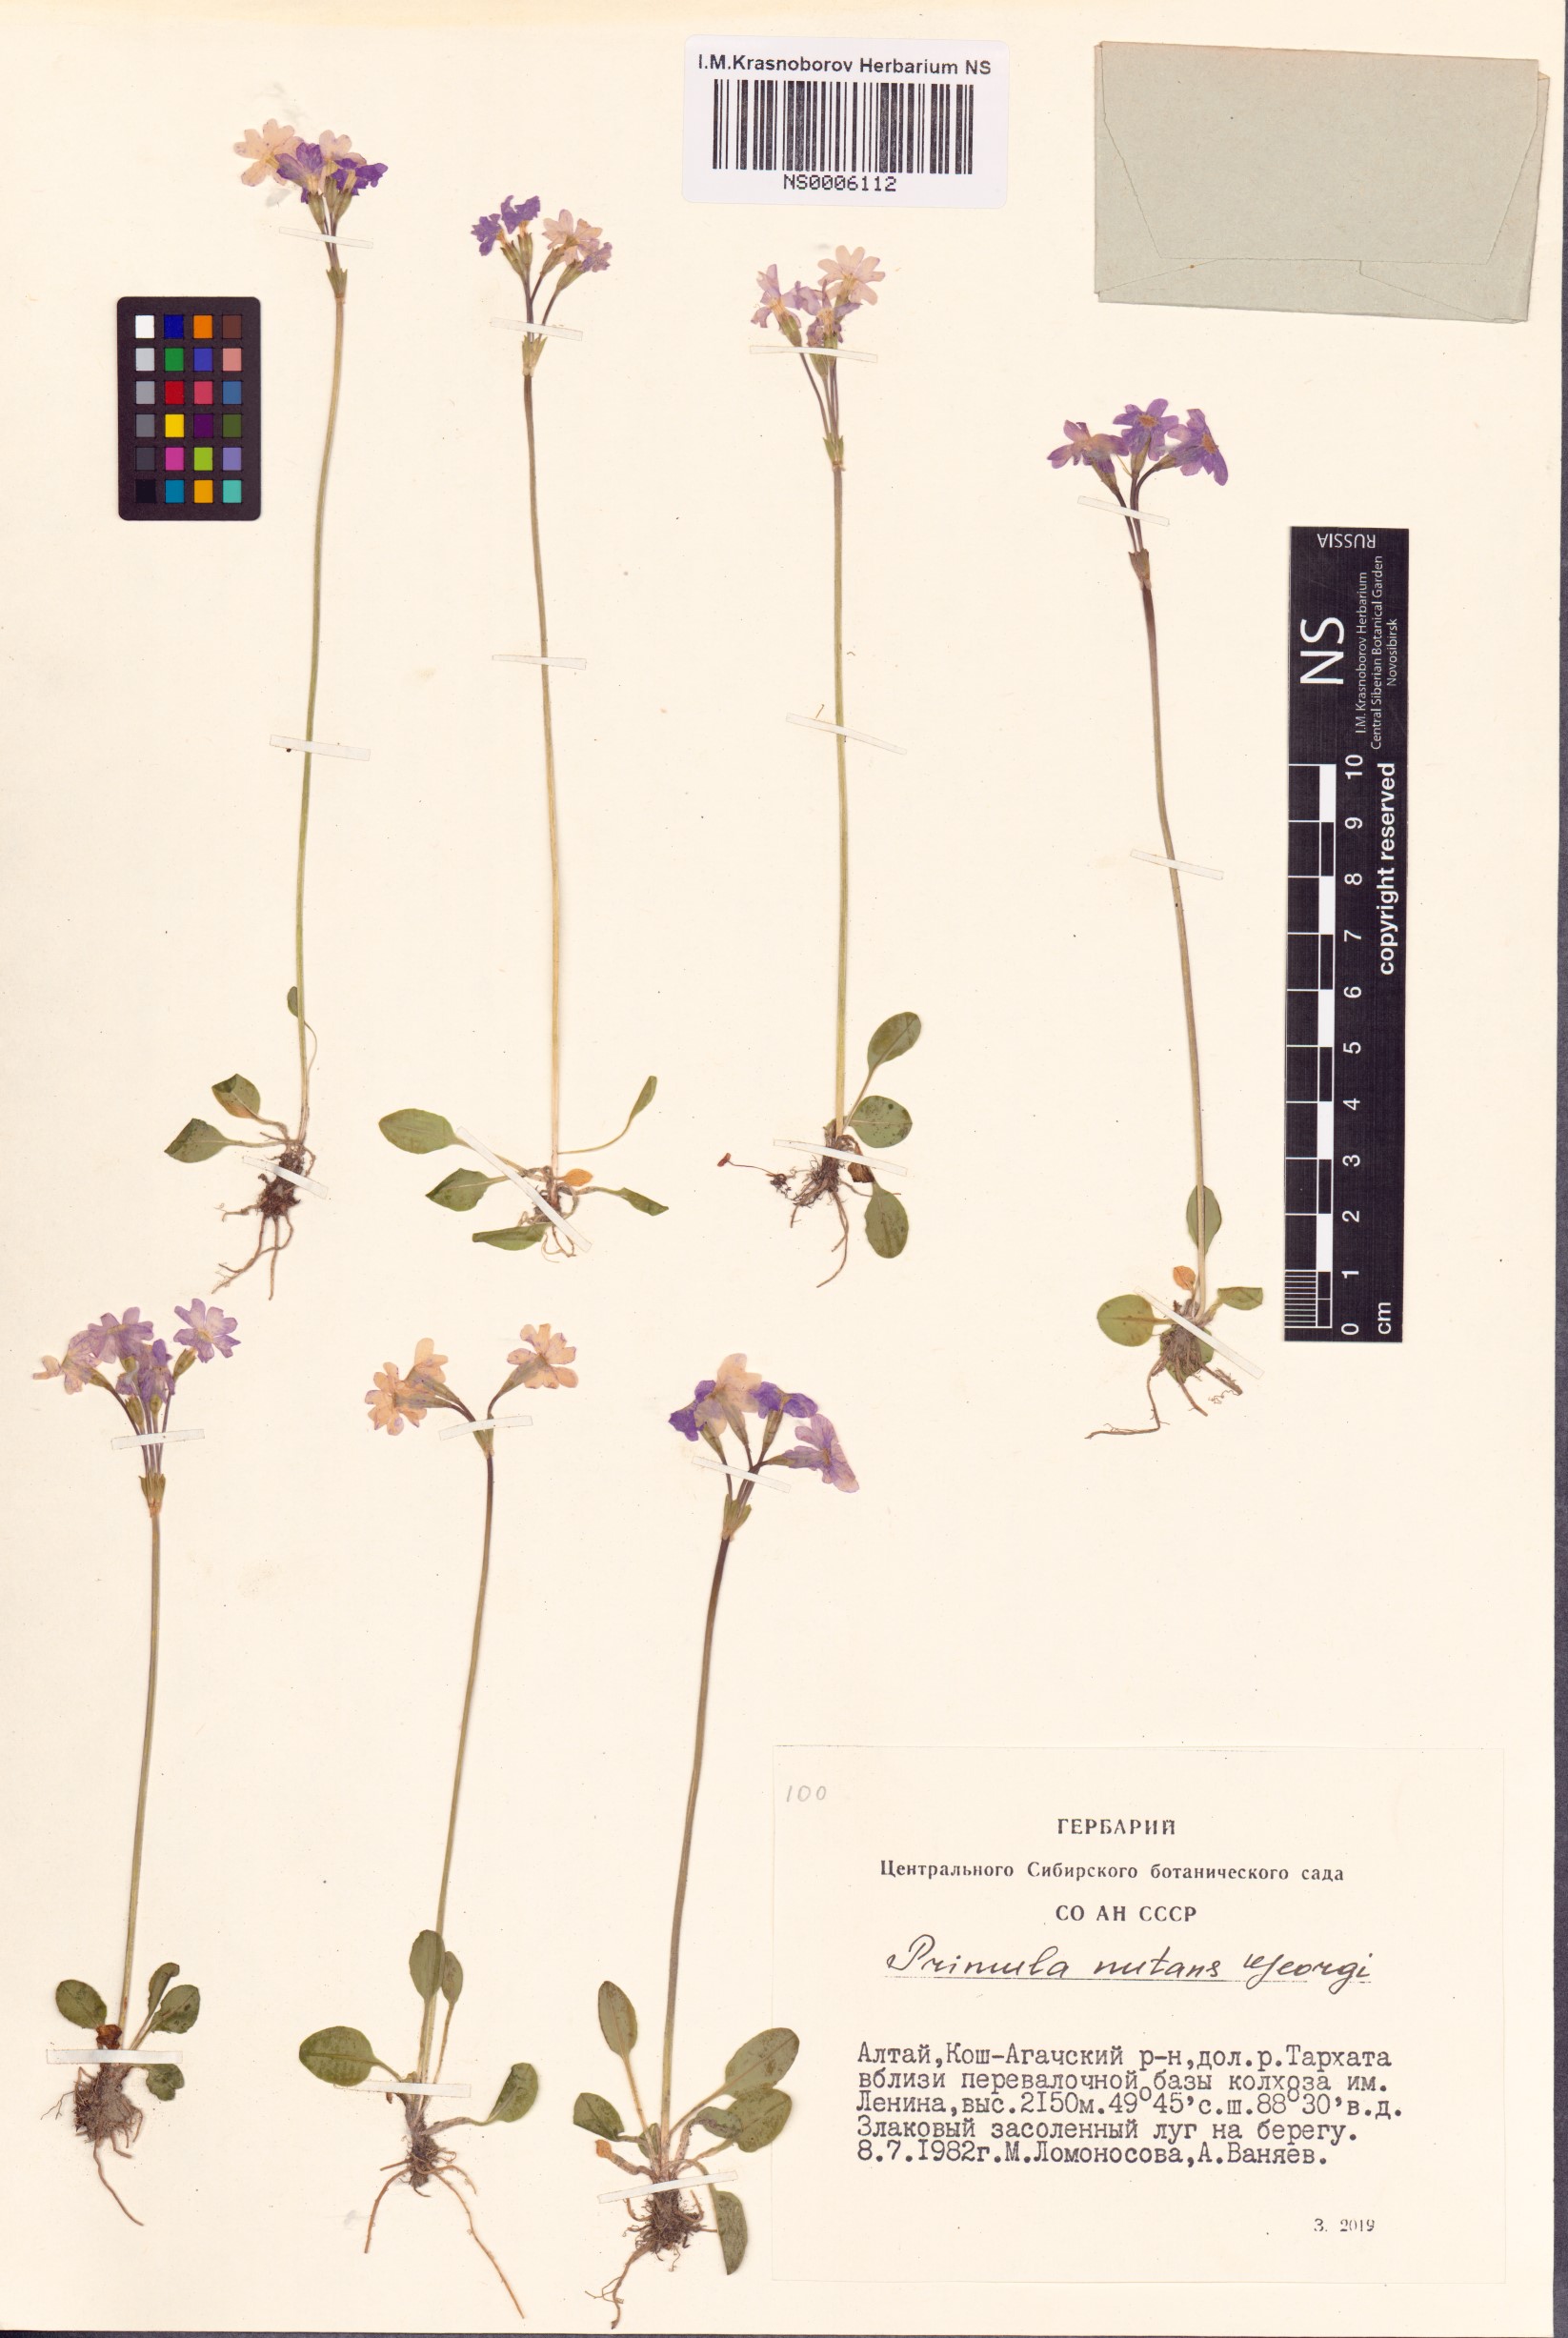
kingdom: Plantae
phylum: Tracheophyta
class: Magnoliopsida
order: Ericales
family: Primulaceae
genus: Primula
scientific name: Primula nutans
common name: Siberian primrose
